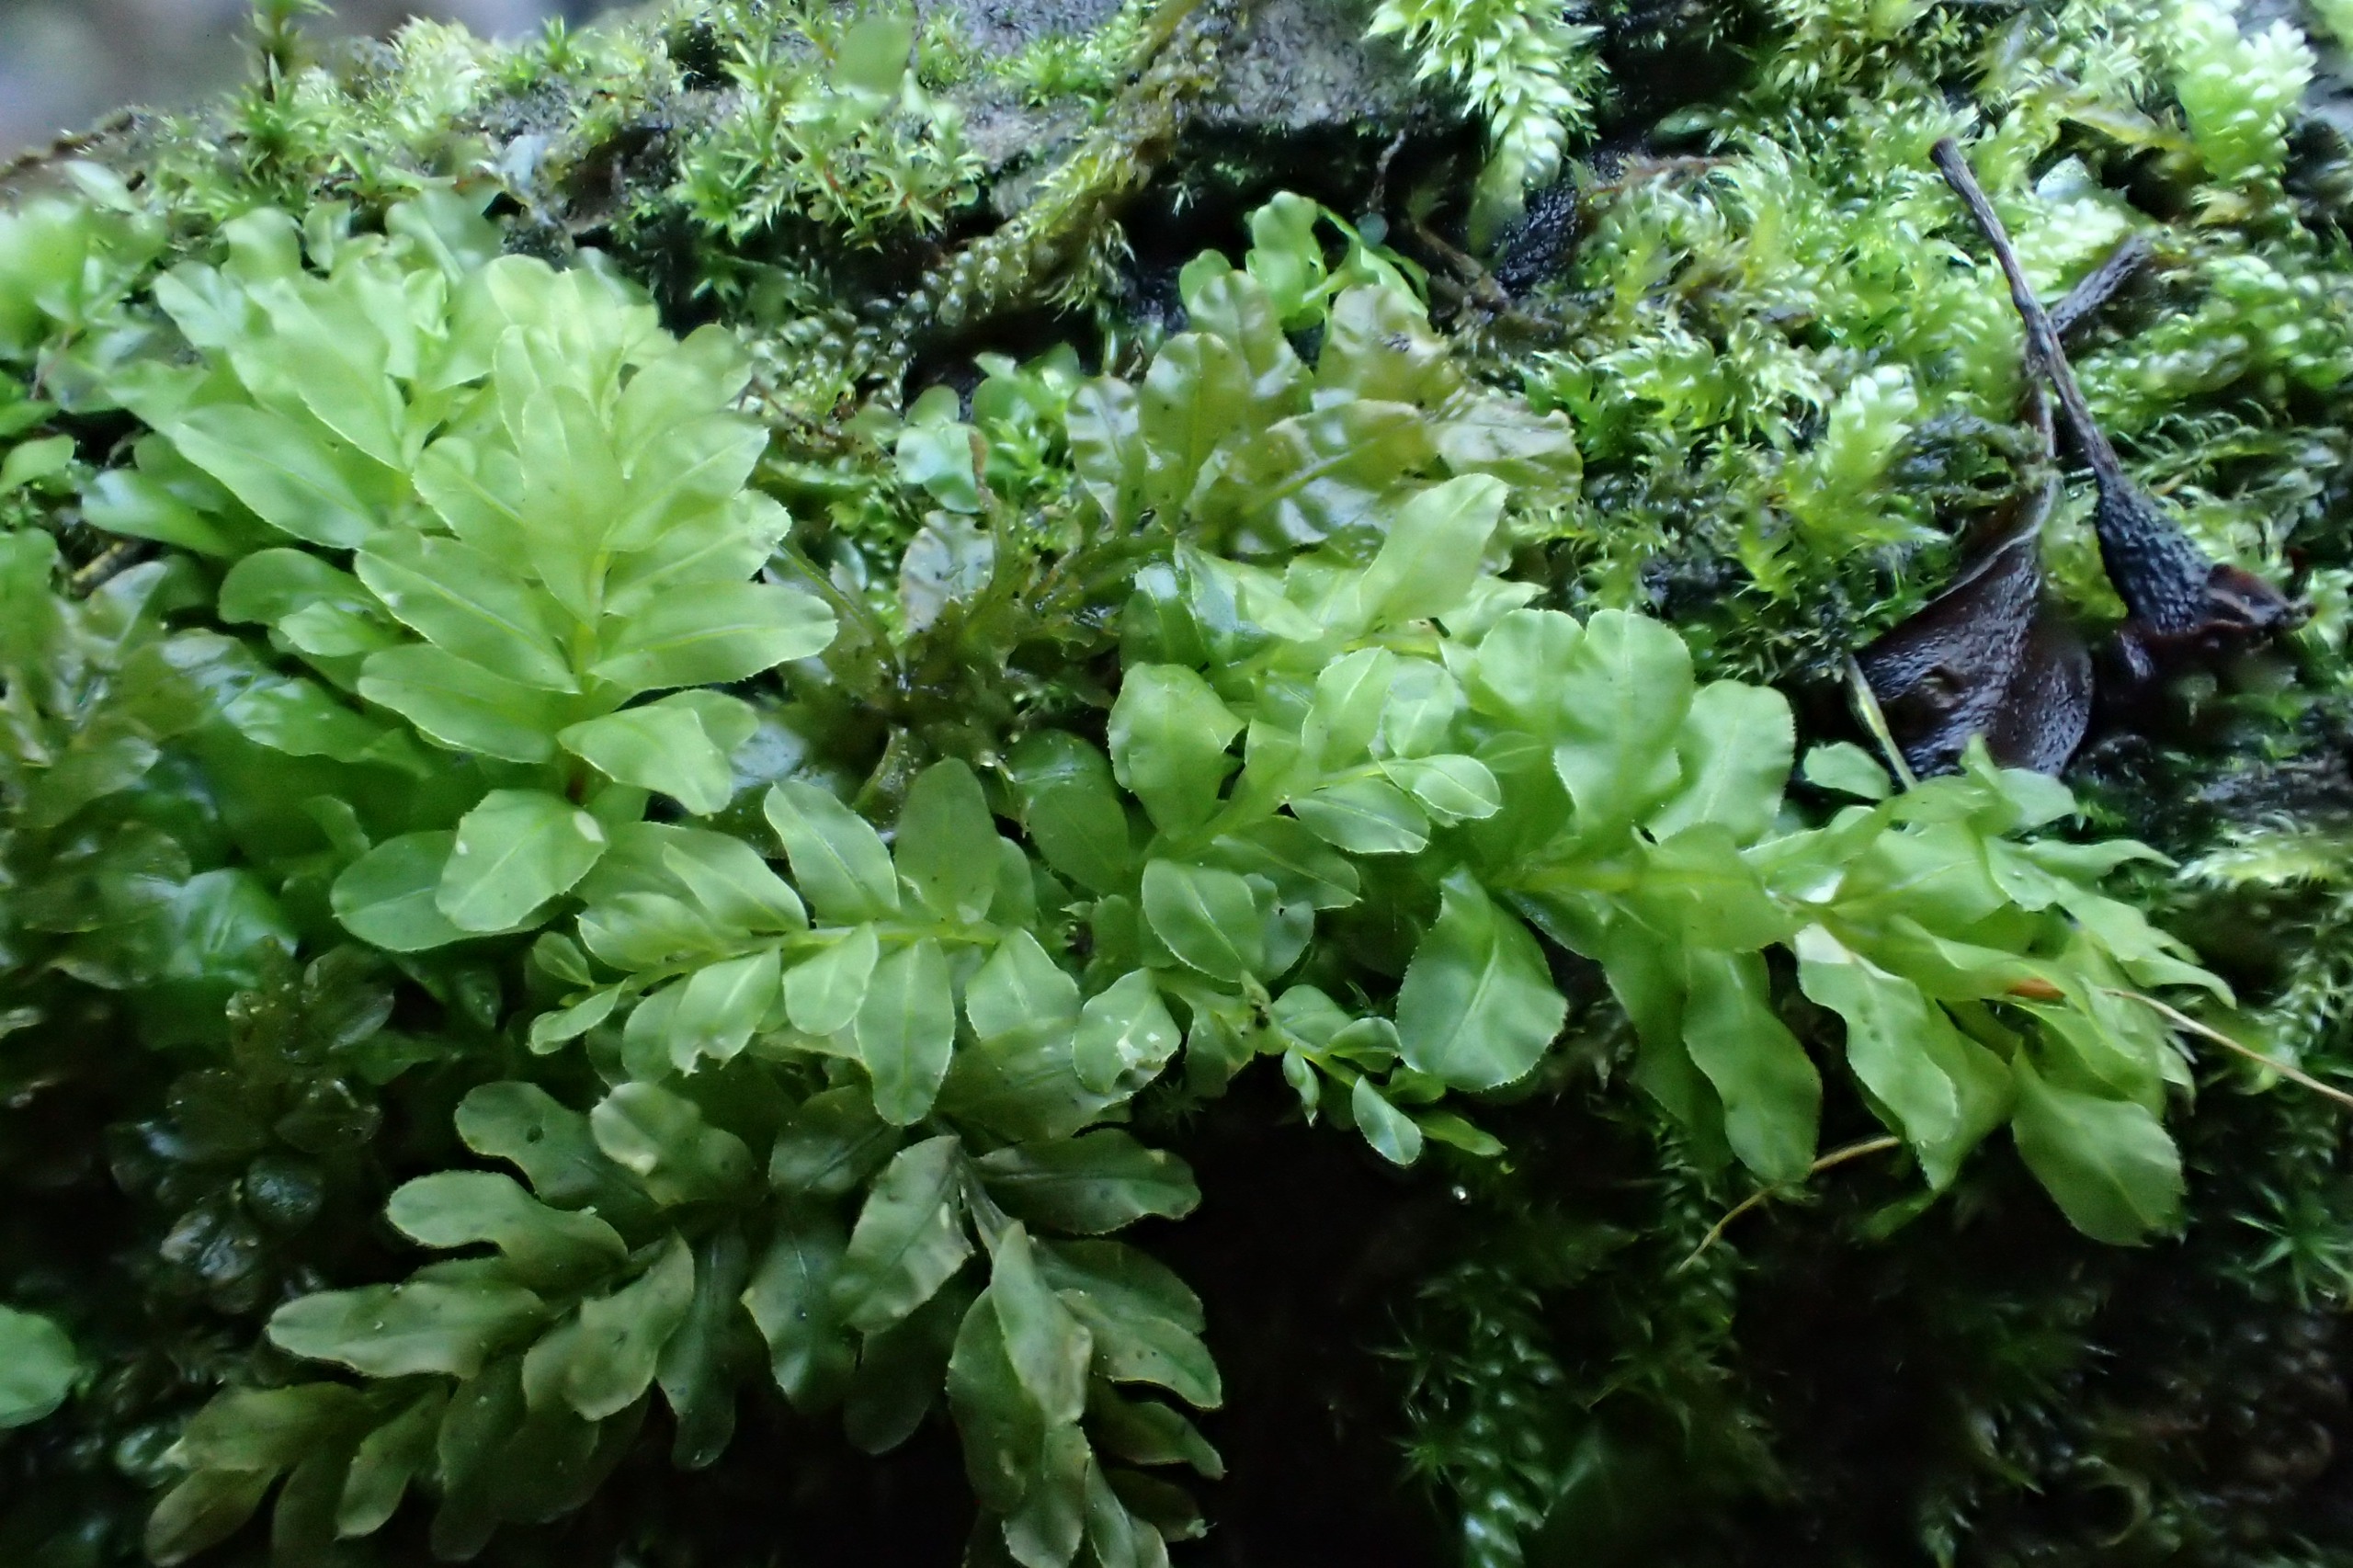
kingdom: Plantae
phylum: Bryophyta
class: Bryopsida
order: Bryales
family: Mniaceae
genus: Plagiomnium
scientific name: Plagiomnium undulatum
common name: Bølget krybstjerne
